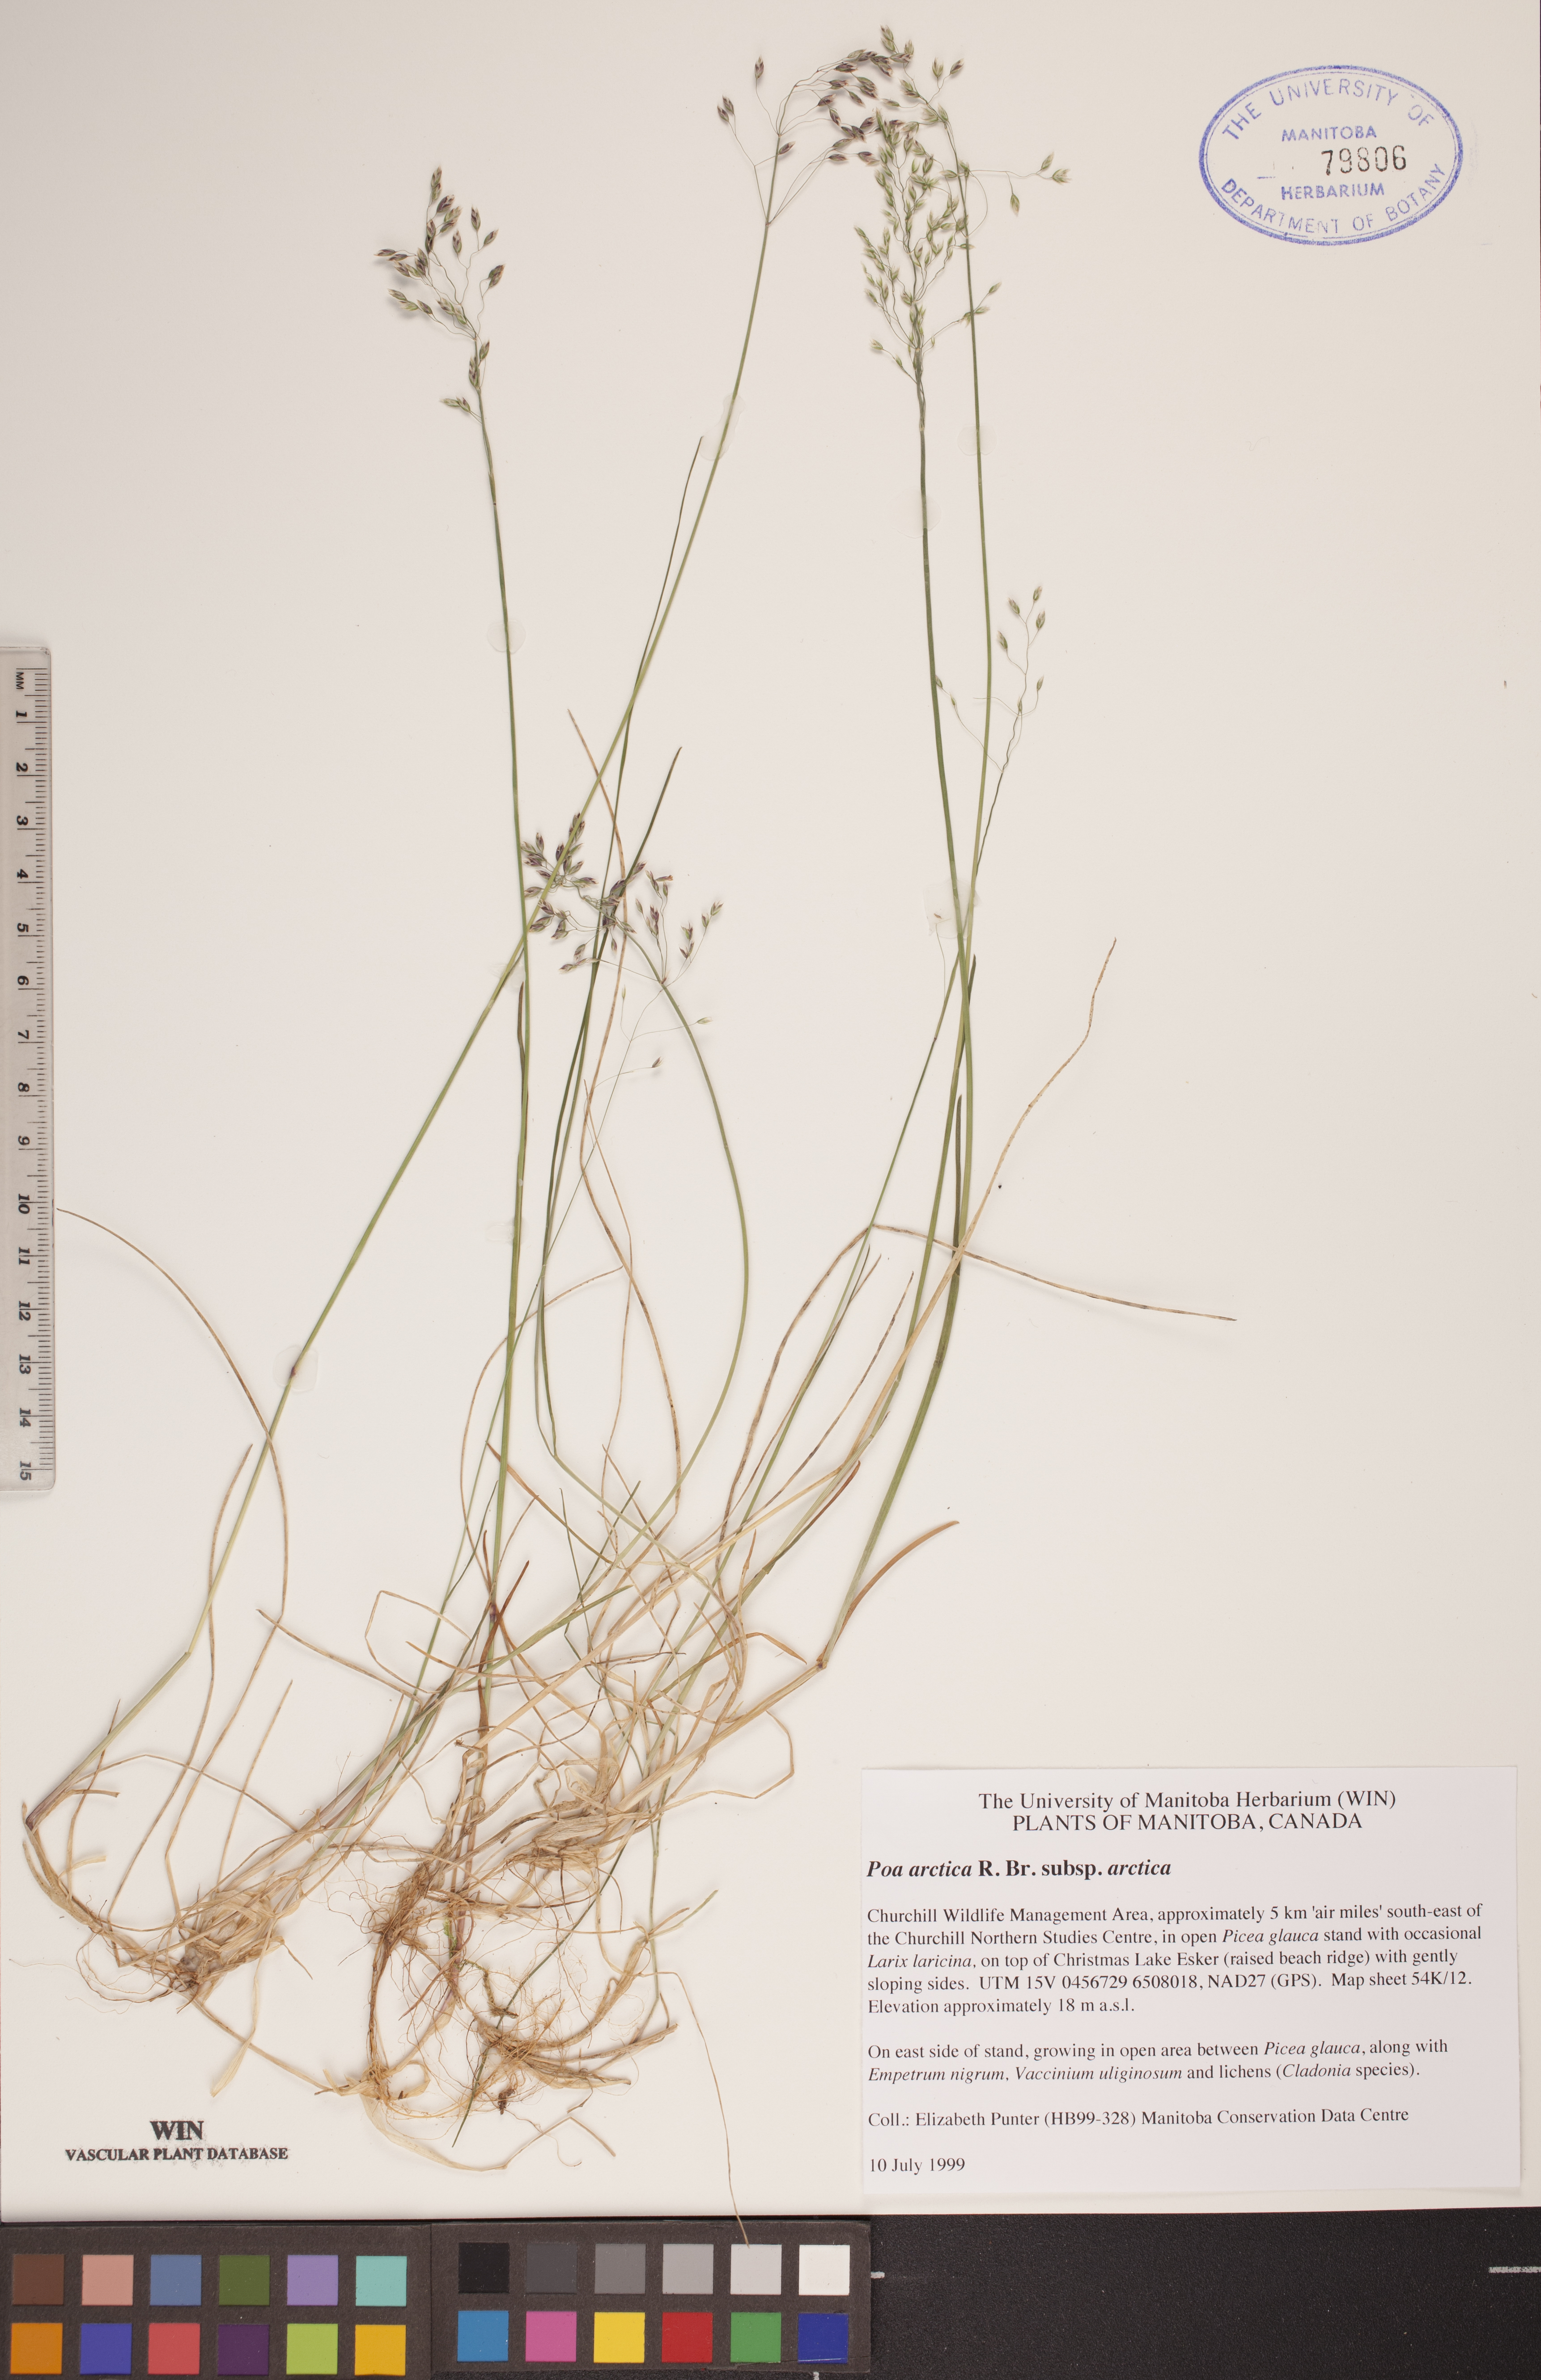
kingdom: Plantae
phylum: Tracheophyta
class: Liliopsida
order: Poales
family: Poaceae
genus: Poa
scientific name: Poa arctica
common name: Arctic bluegrass
